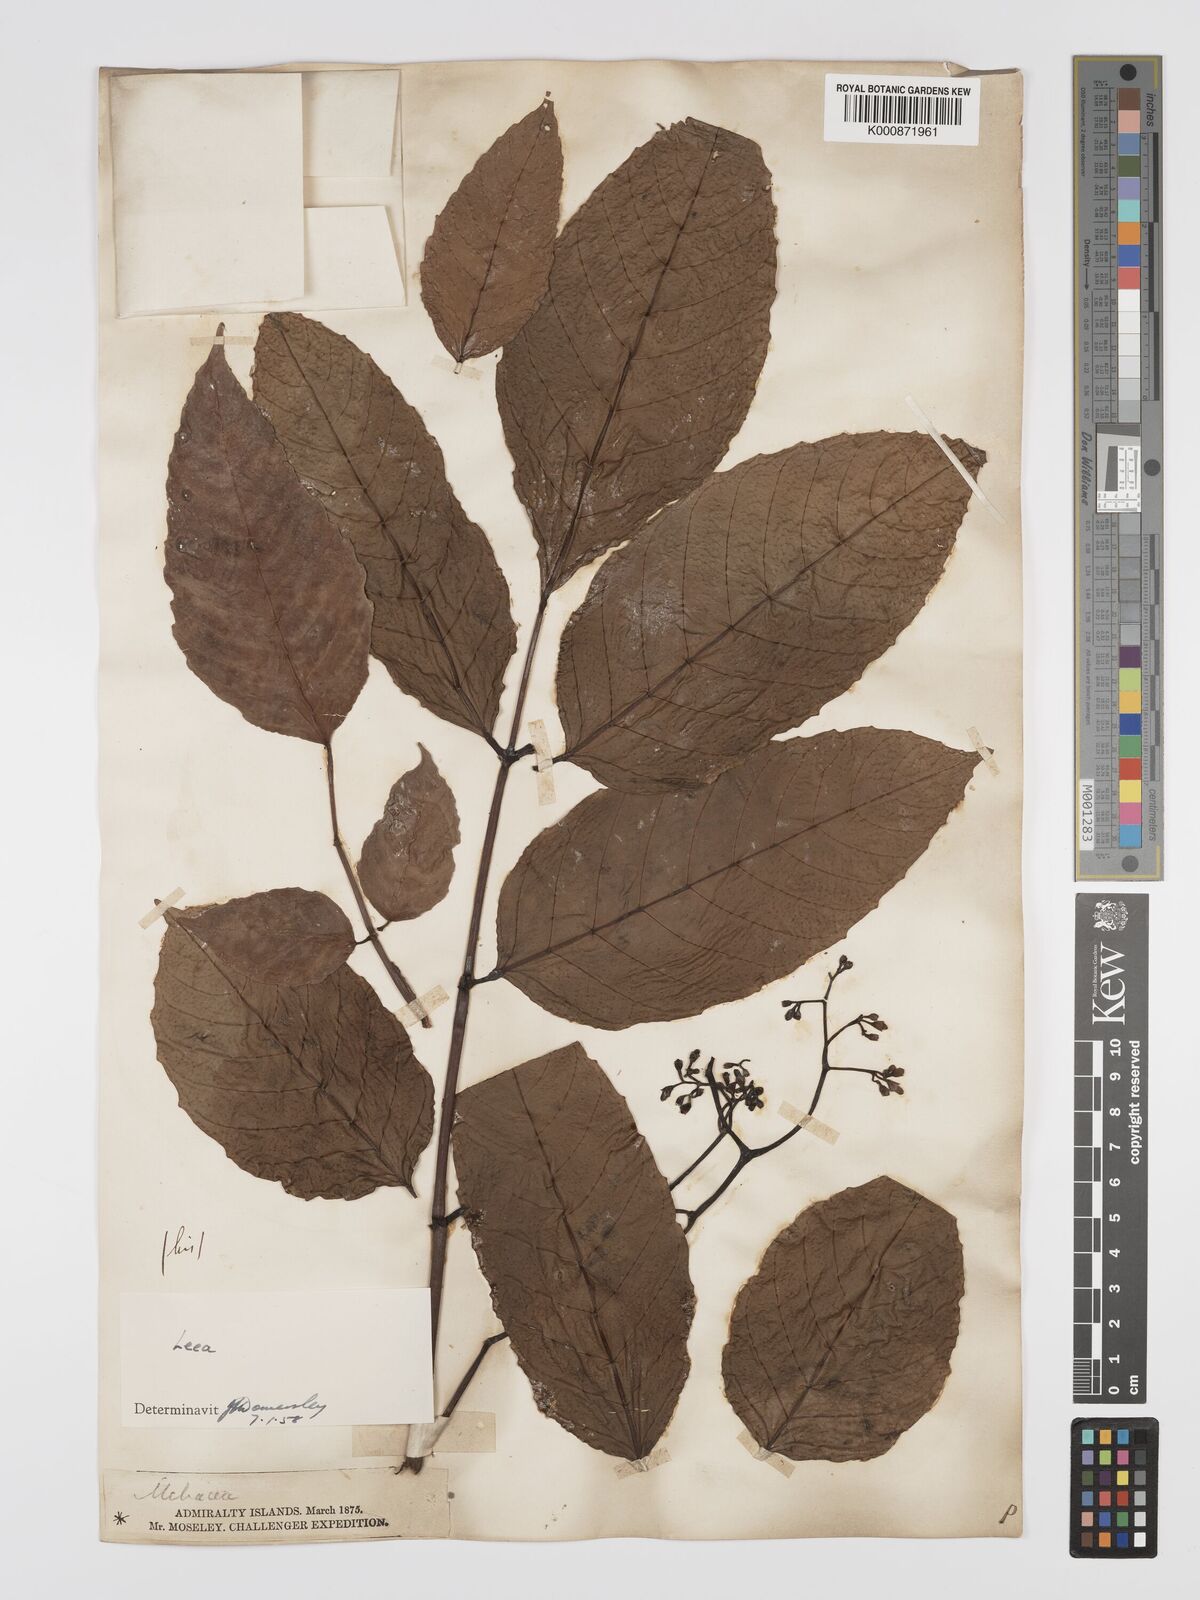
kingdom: Plantae
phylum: Tracheophyta
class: Magnoliopsida
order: Vitales
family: Vitaceae
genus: Leea
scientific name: Leea
